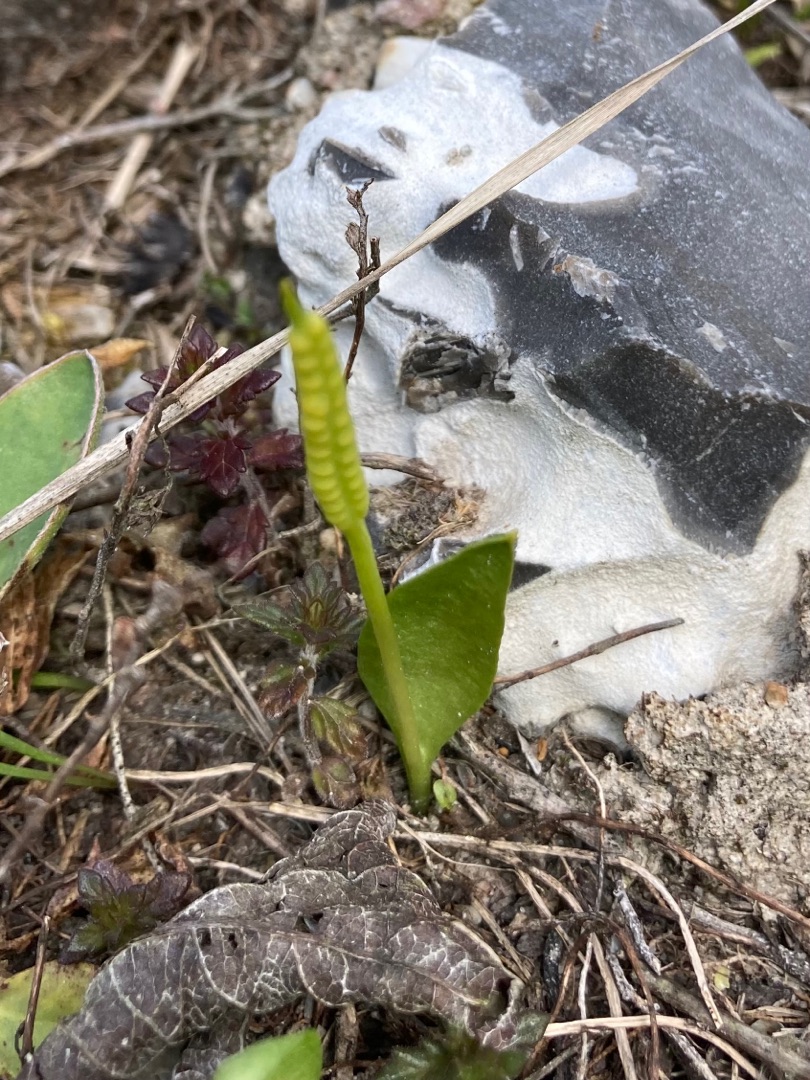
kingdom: Plantae
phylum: Tracheophyta
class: Polypodiopsida
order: Ophioglossales
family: Ophioglossaceae
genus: Ophioglossum
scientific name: Ophioglossum vulgatum
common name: Slangetunge
